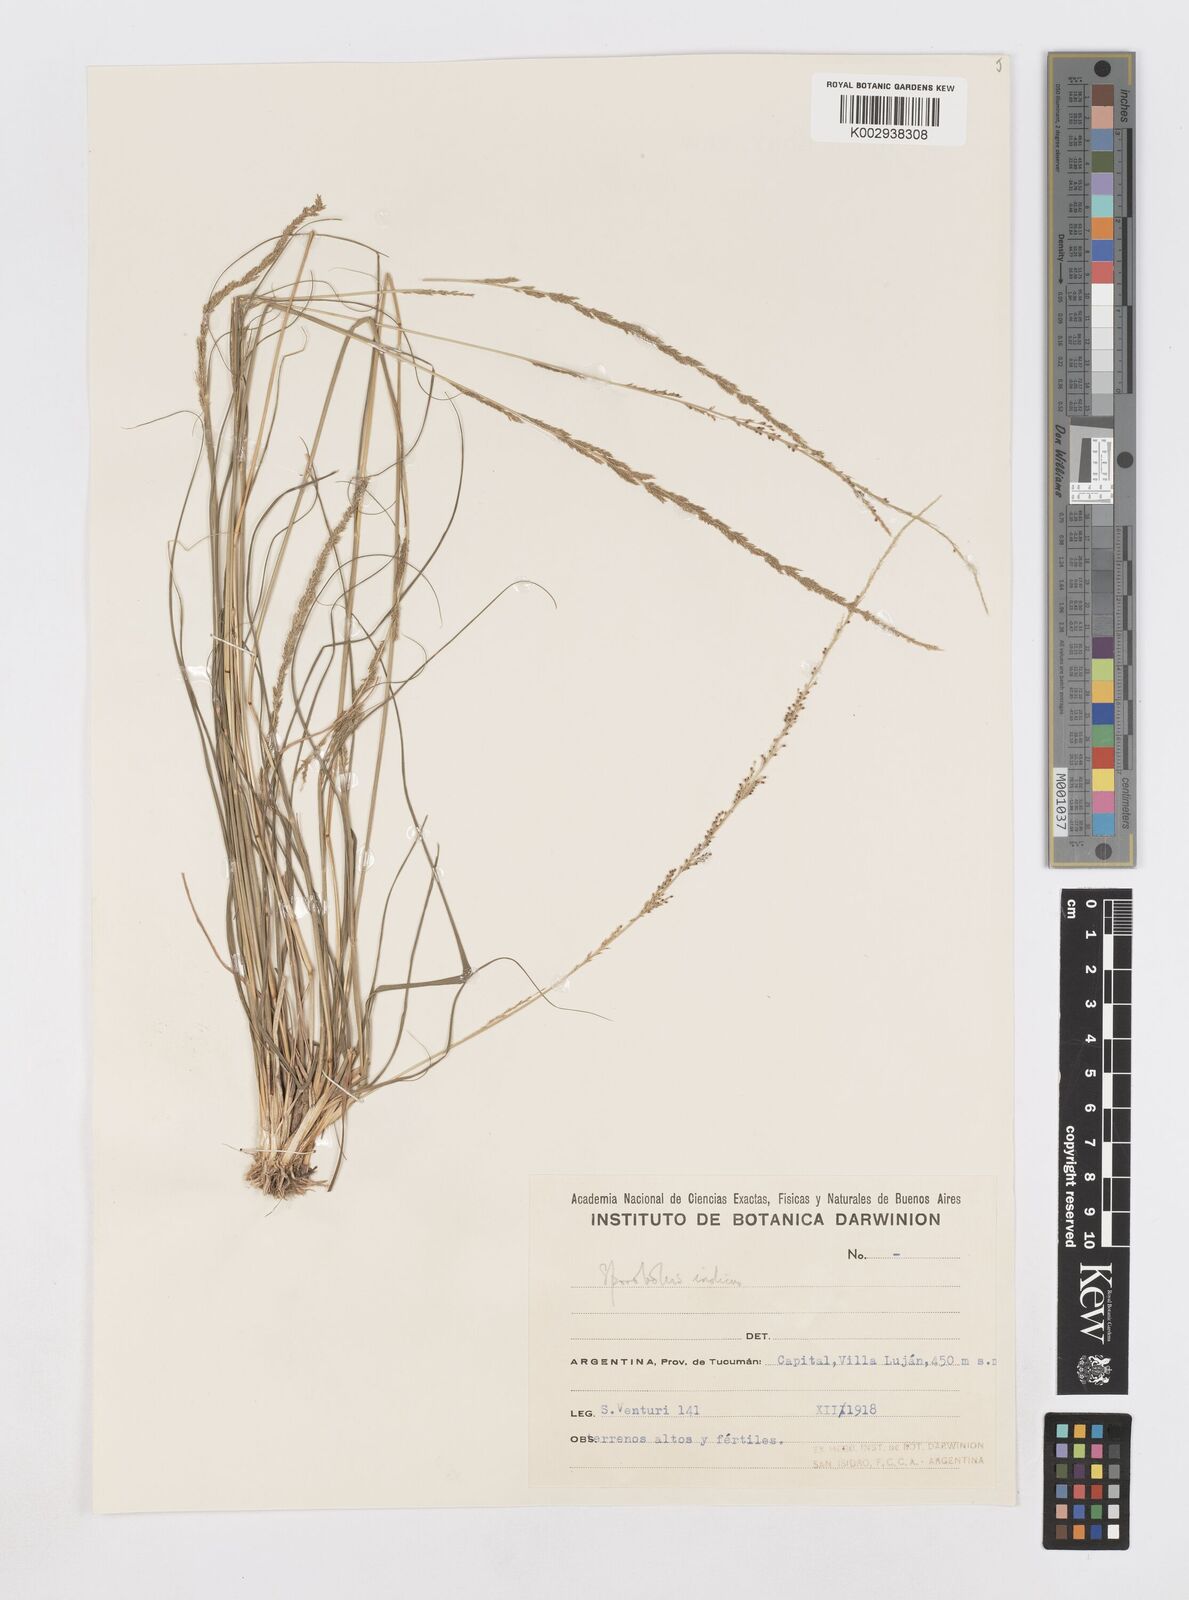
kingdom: Plantae
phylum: Tracheophyta
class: Liliopsida
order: Poales
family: Poaceae
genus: Sporobolus
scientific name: Sporobolus indicus
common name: Smut grass
